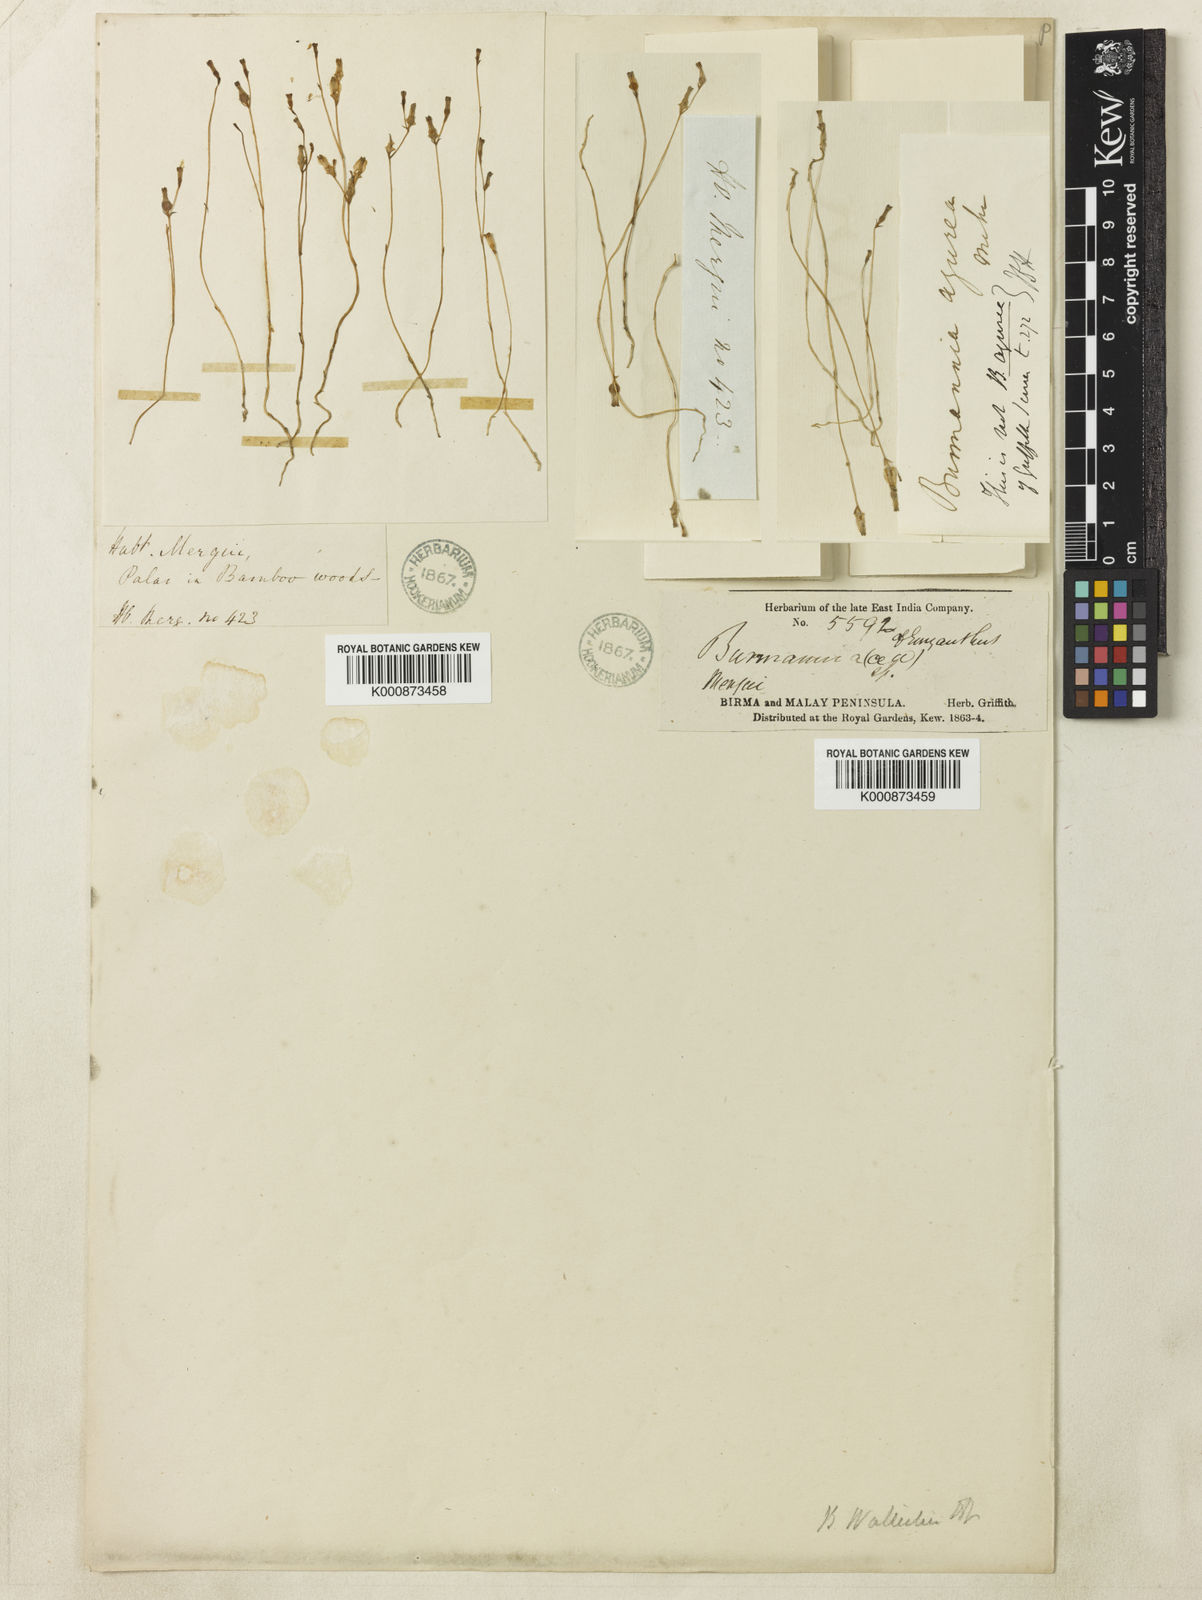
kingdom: Plantae
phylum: Tracheophyta
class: Liliopsida
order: Dioscoreales
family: Burmanniaceae
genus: Burmannia
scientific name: Burmannia wallichii
